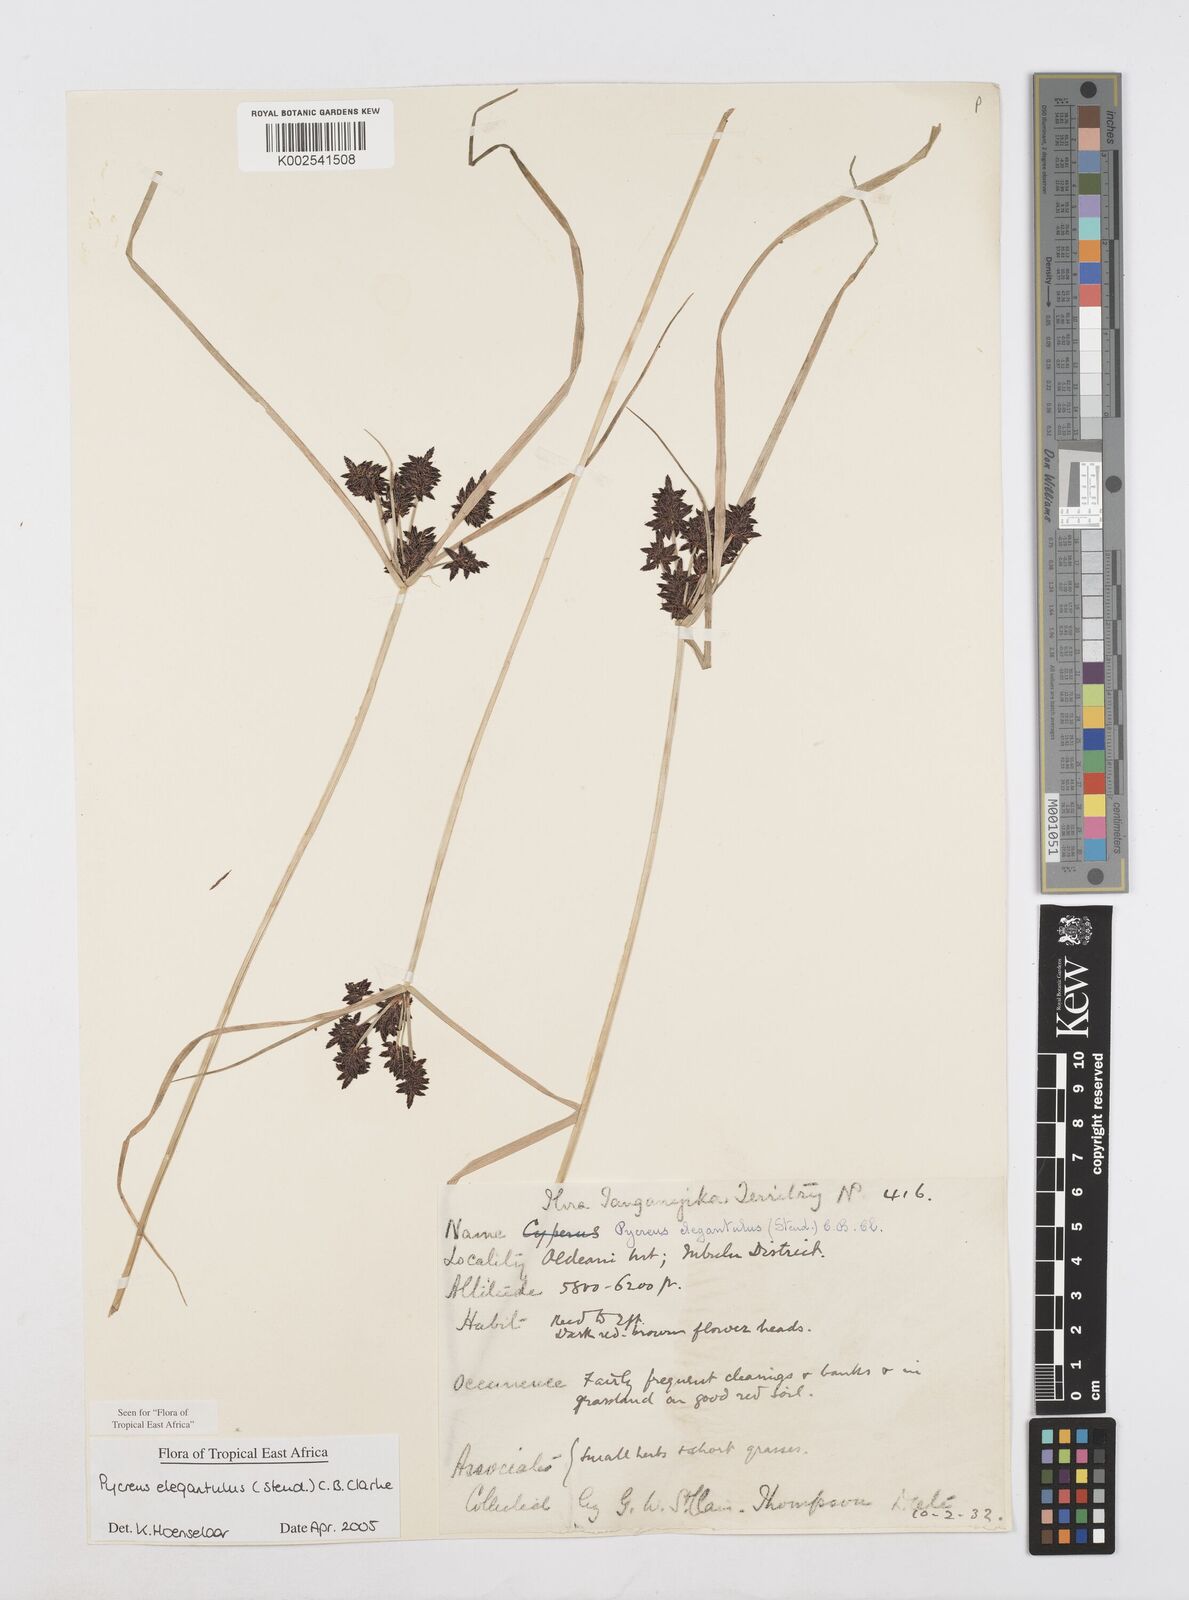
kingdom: Plantae
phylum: Tracheophyta
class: Liliopsida
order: Poales
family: Cyperaceae
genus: Cyperus
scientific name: Cyperus elegantulus
